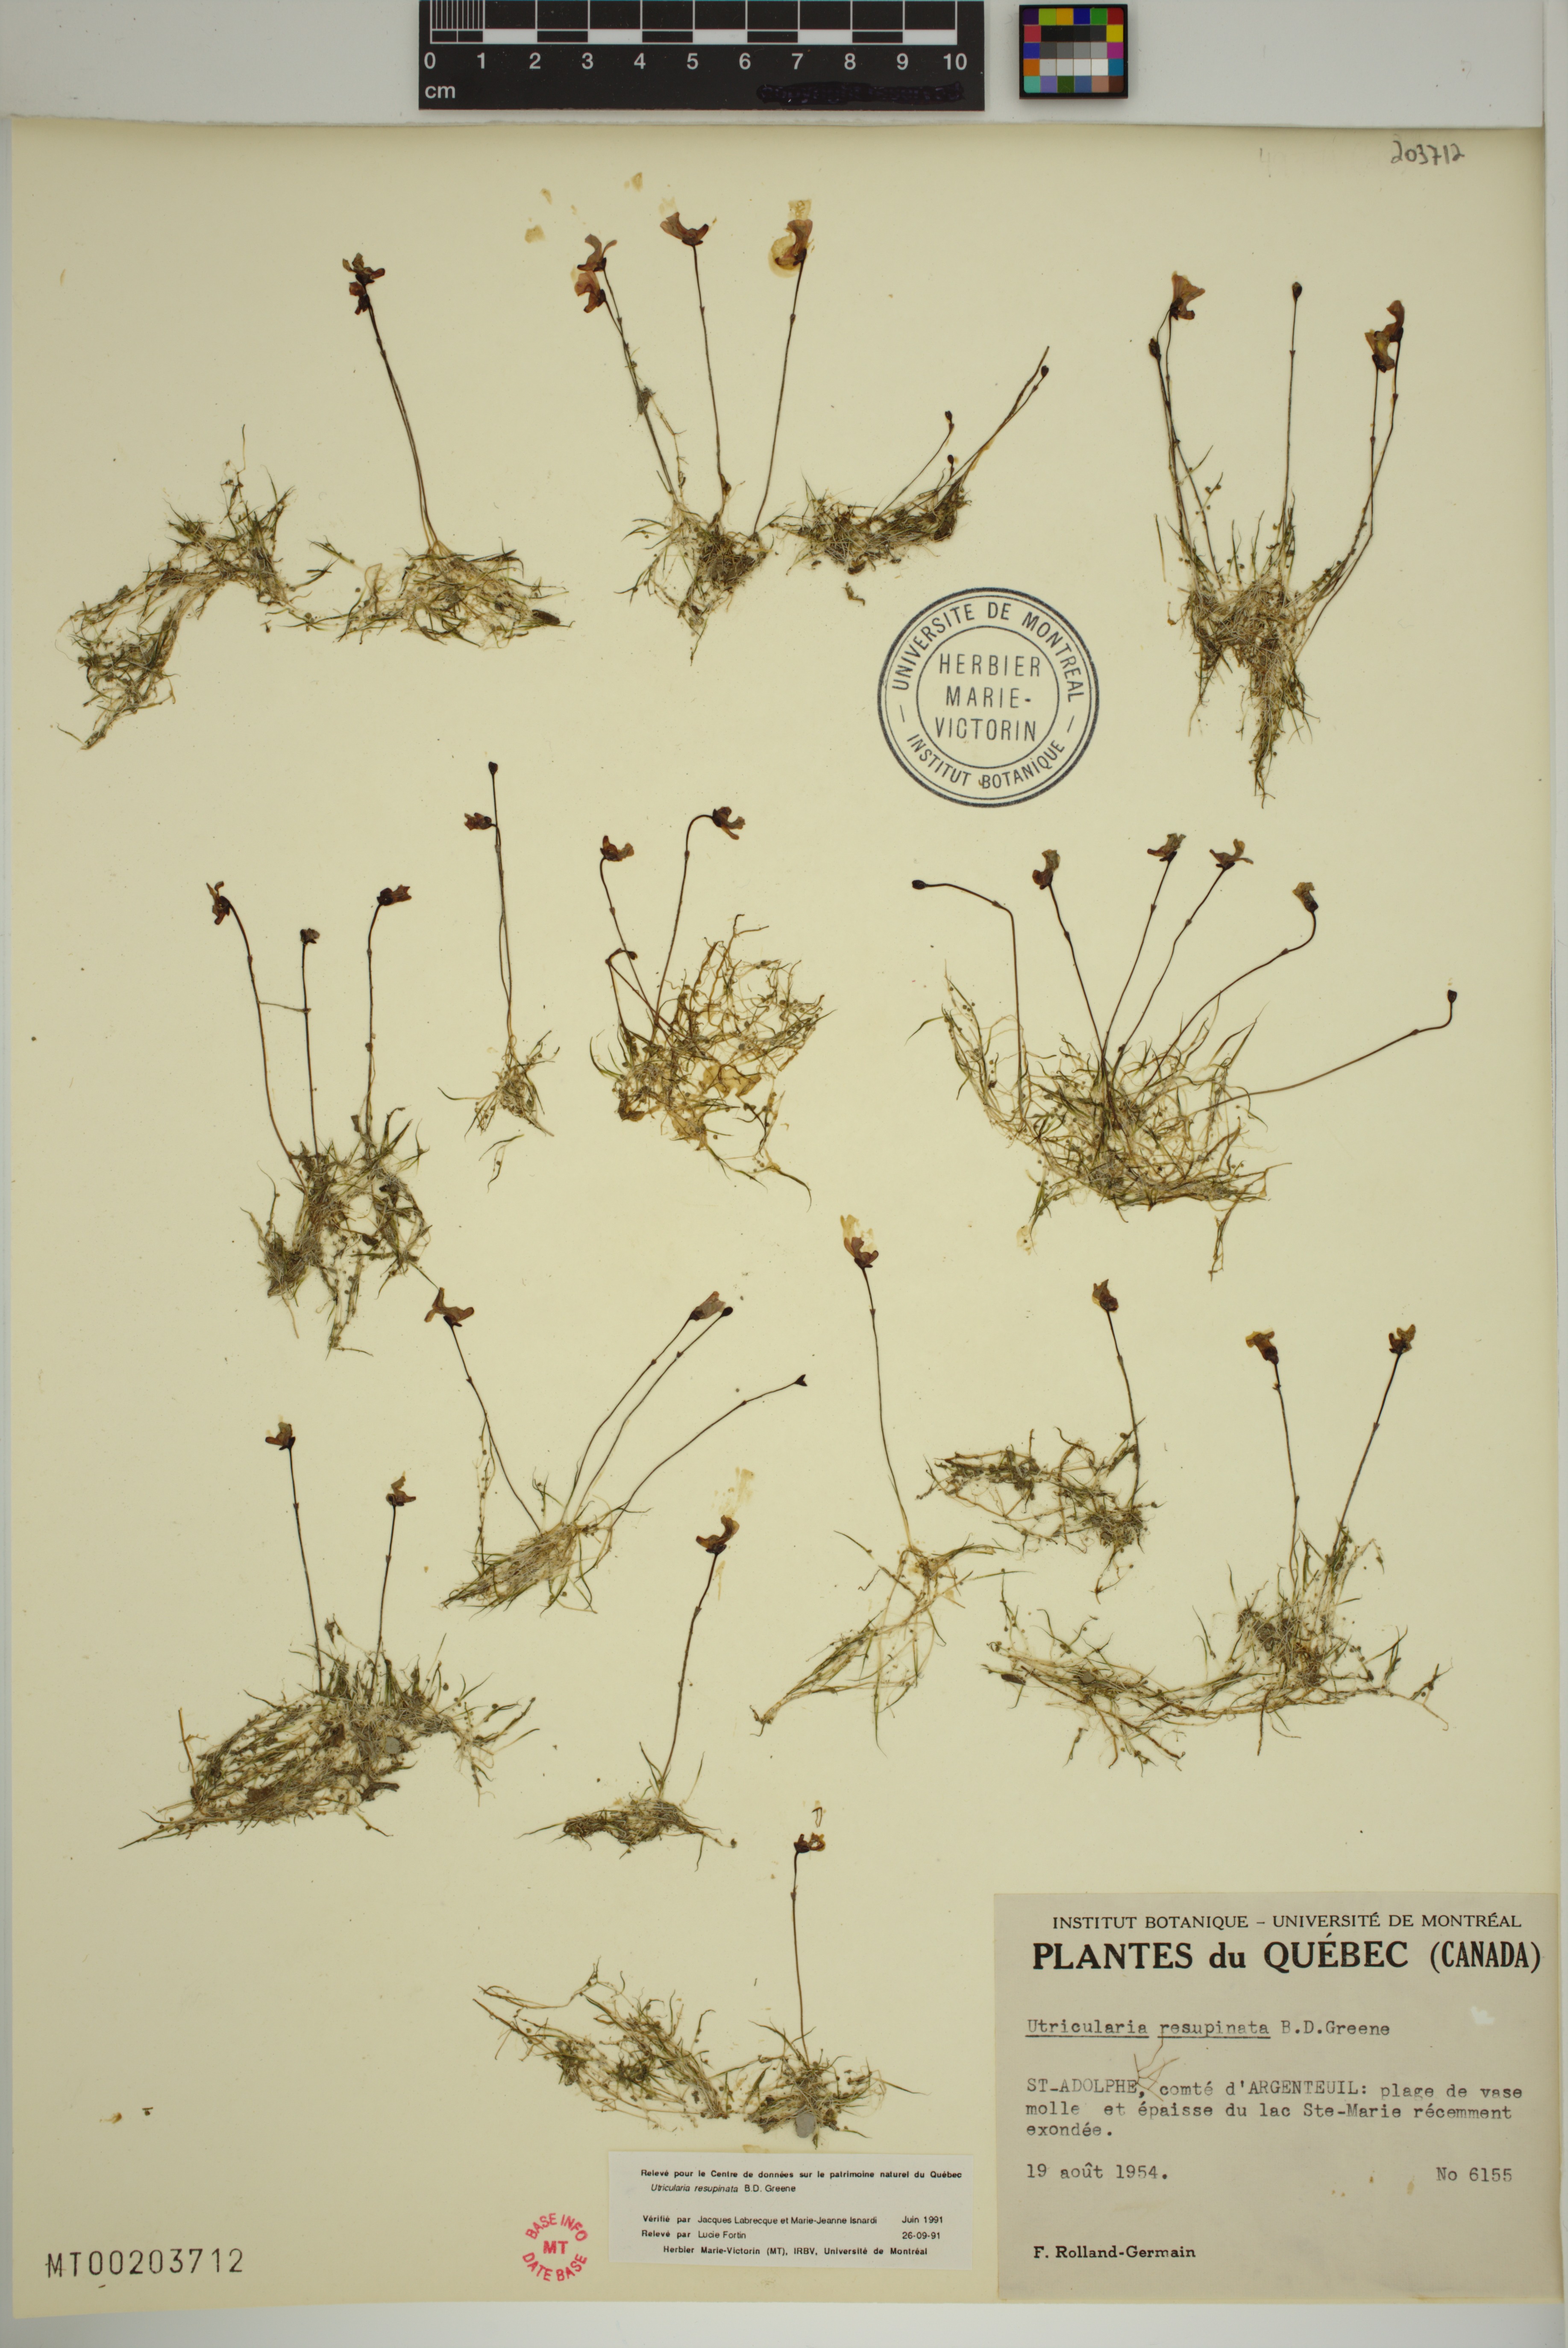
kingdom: Plantae
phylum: Tracheophyta
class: Magnoliopsida
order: Lamiales
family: Lentibulariaceae
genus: Utricularia
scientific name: Utricularia resupinata
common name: Northeastern bladderwort
